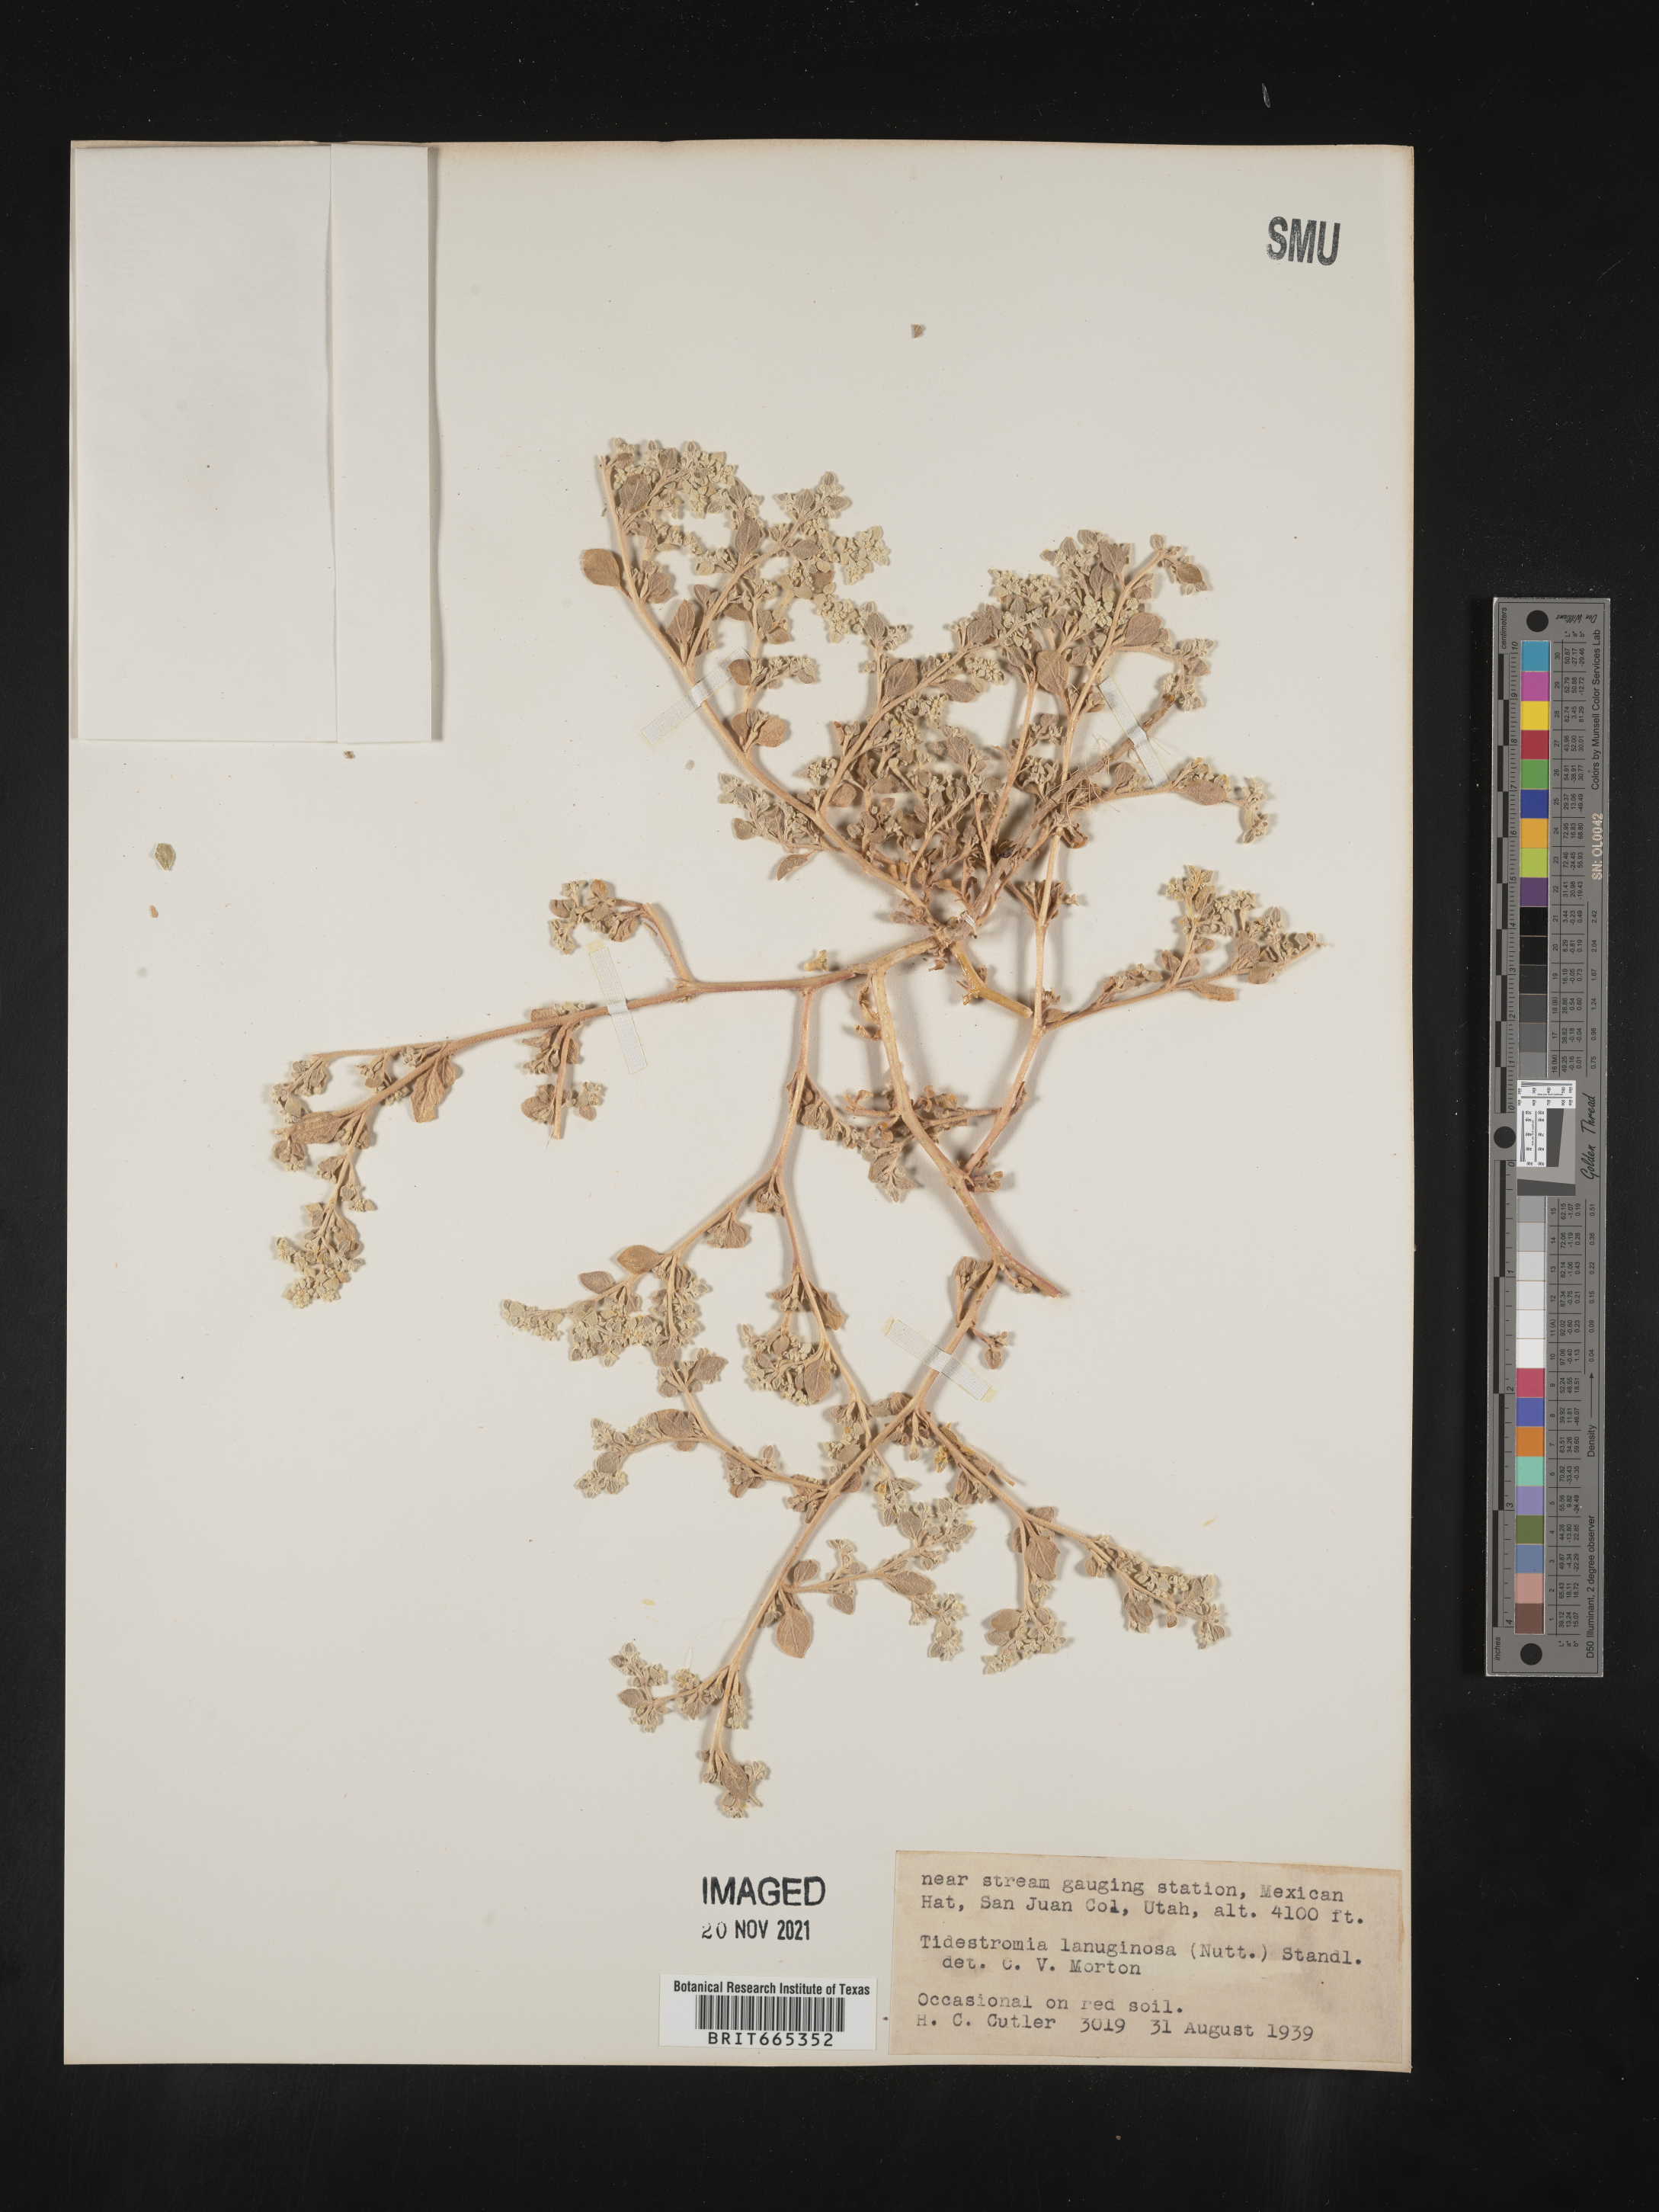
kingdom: Plantae
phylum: Tracheophyta
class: Magnoliopsida
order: Caryophyllales
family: Amaranthaceae
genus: Tidestromia
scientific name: Tidestromia lanuginosa
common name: Woolly tidestromia
